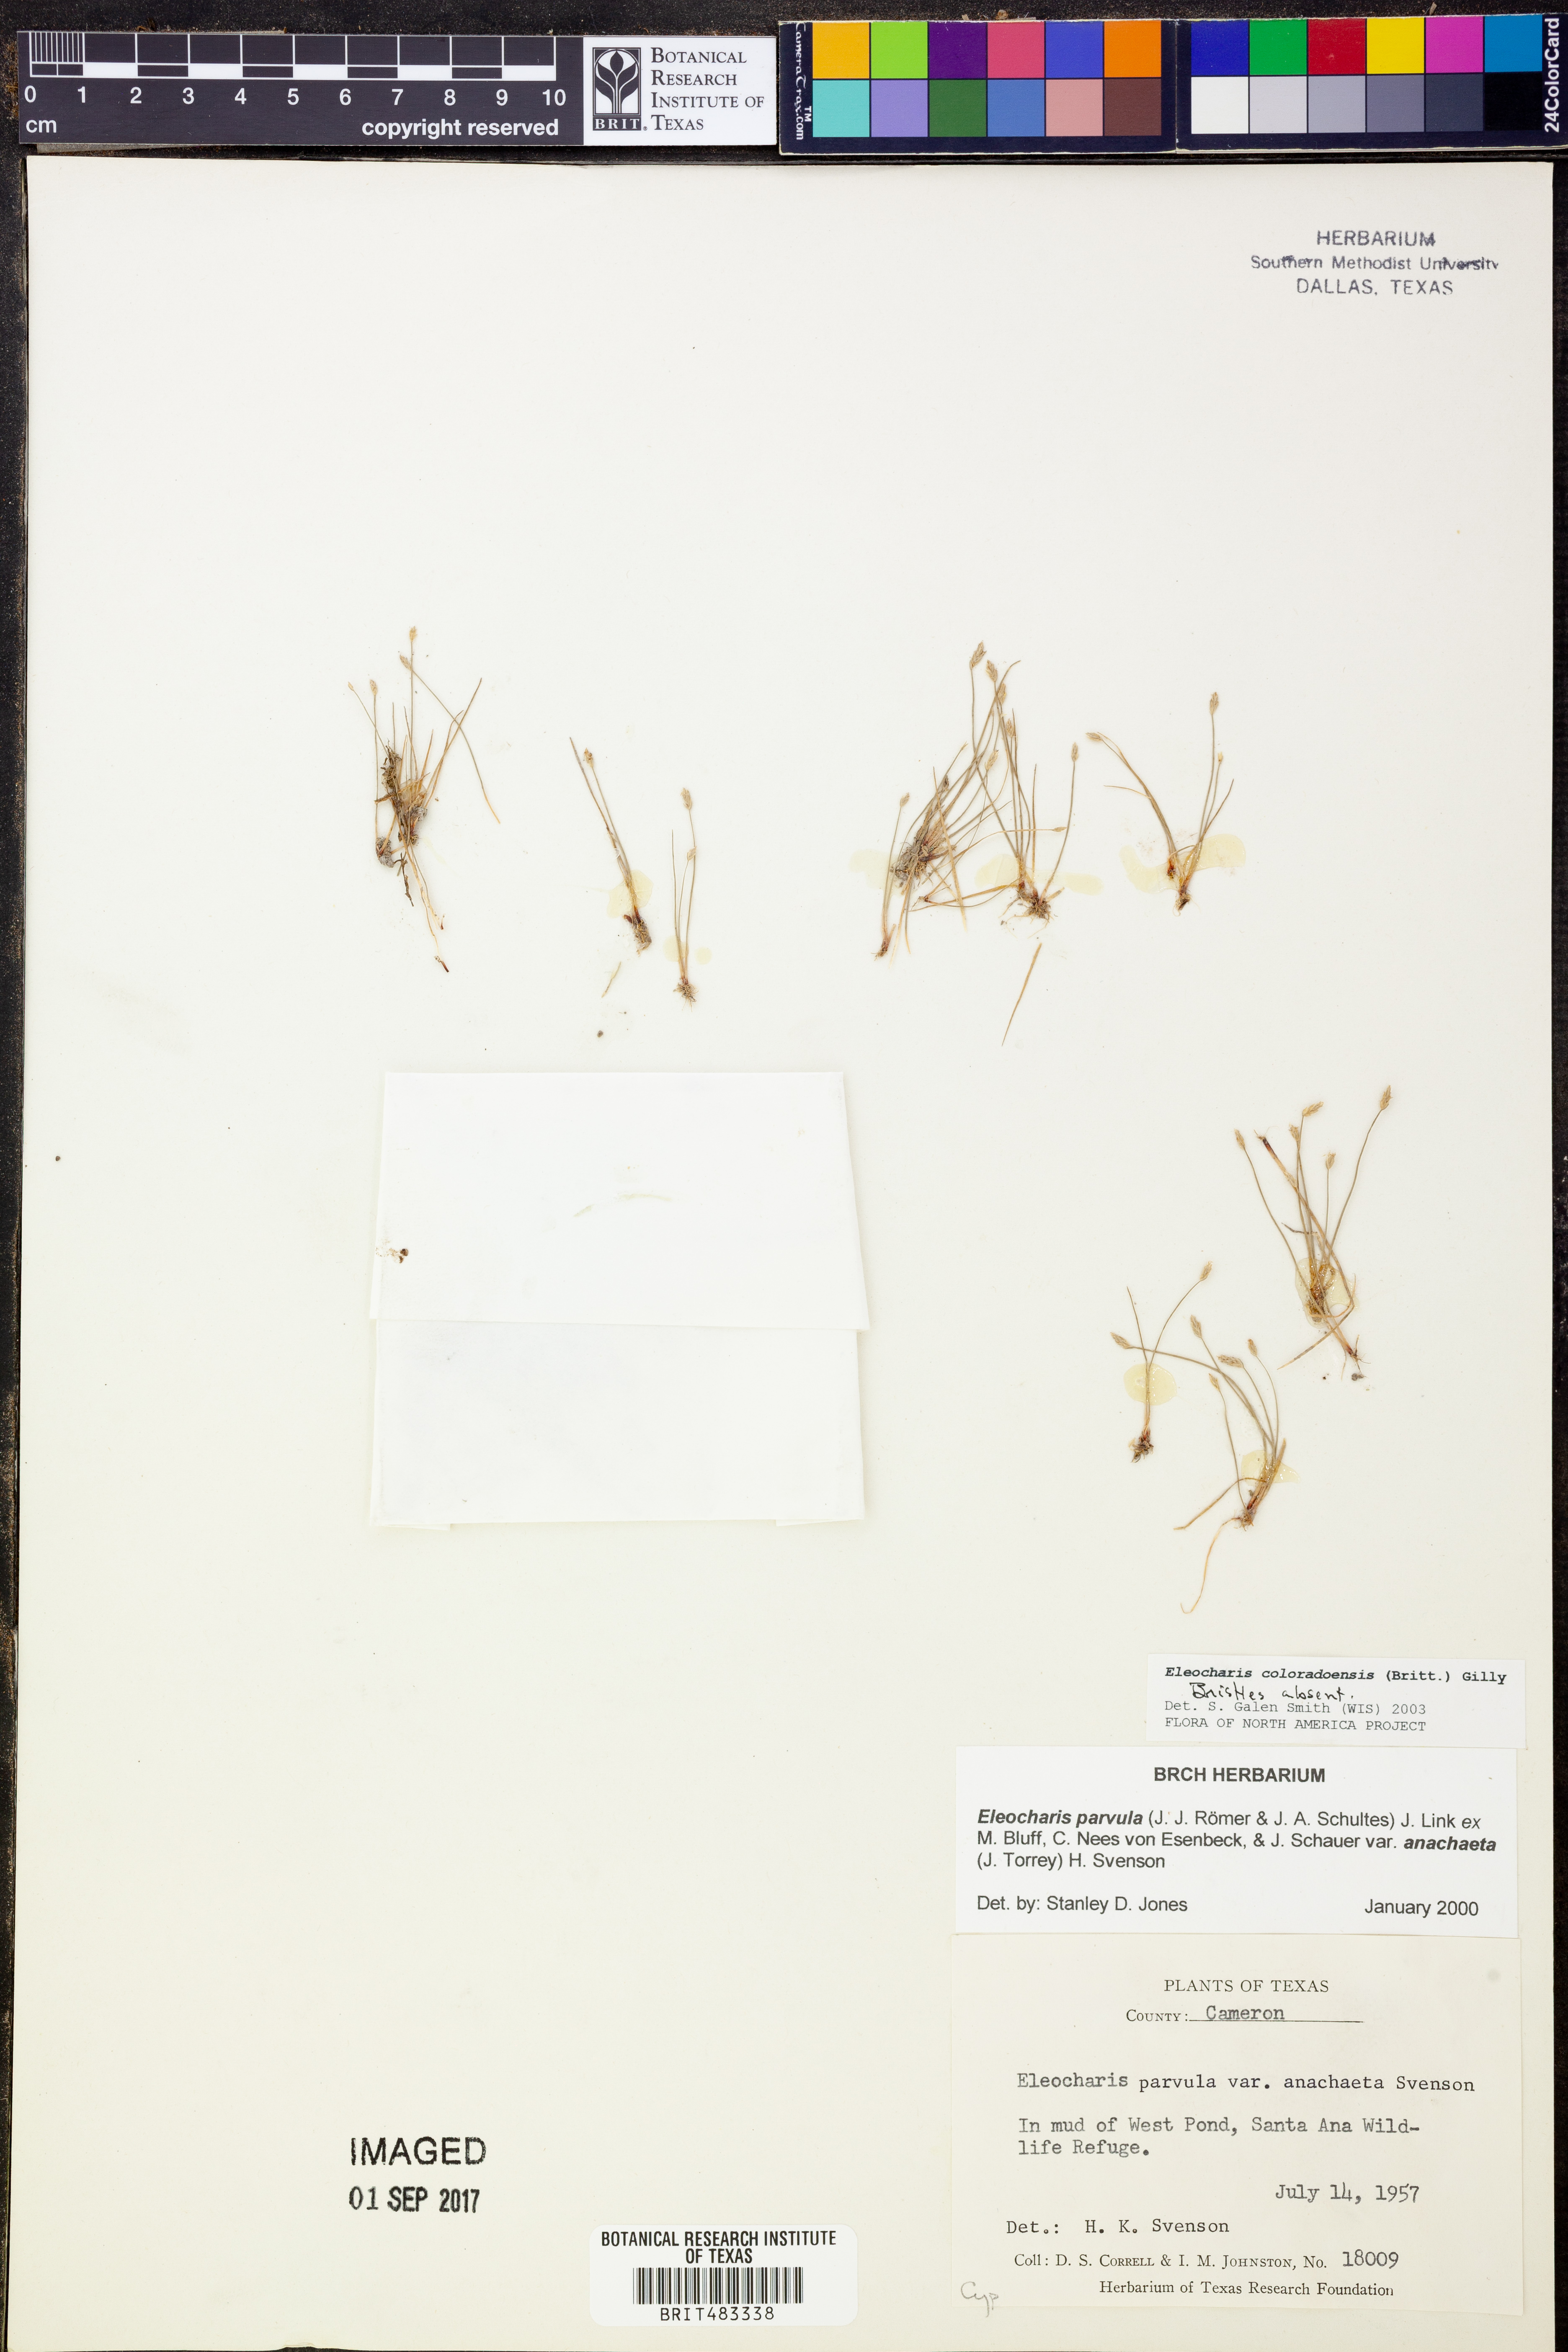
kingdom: Plantae
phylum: Tracheophyta
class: Liliopsida
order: Poales
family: Cyperaceae
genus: Eleocharis
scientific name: Eleocharis coloradoensis
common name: Colorado spikerush
